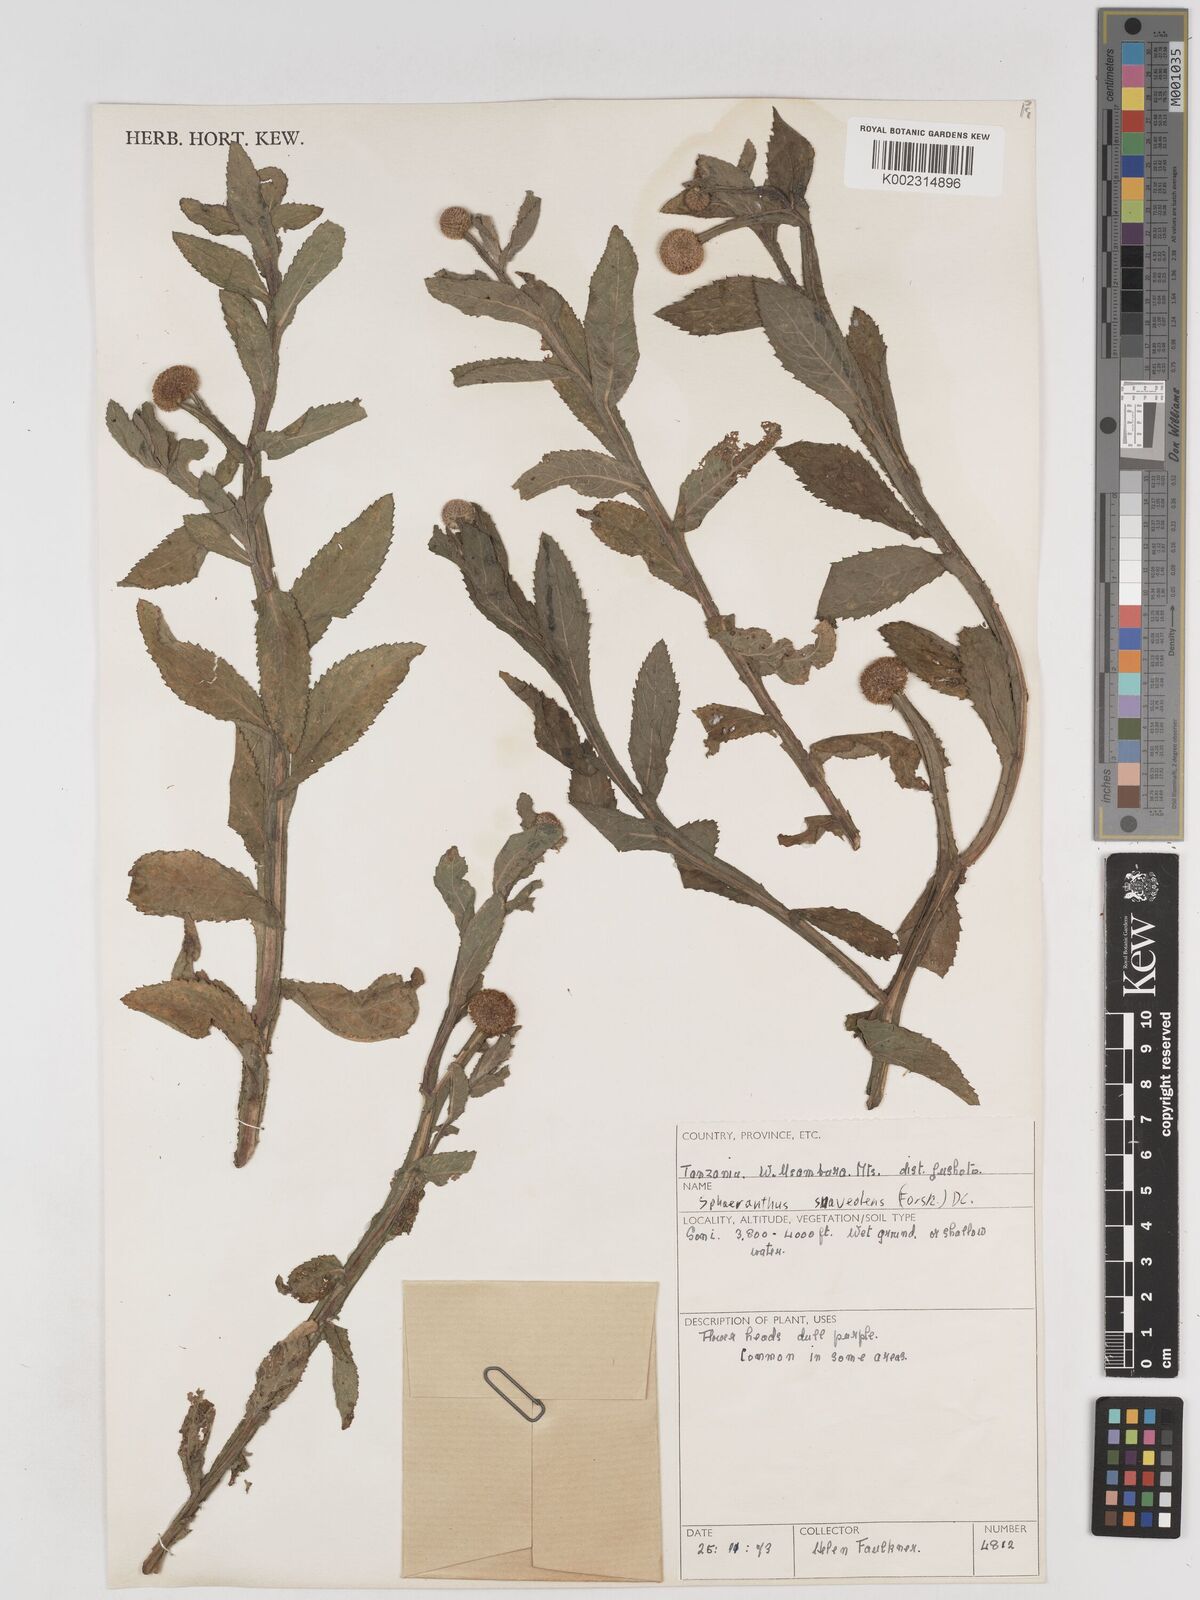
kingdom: Plantae
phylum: Tracheophyta
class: Magnoliopsida
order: Asterales
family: Asteraceae
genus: Sphaeranthus
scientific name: Sphaeranthus suaveolens
